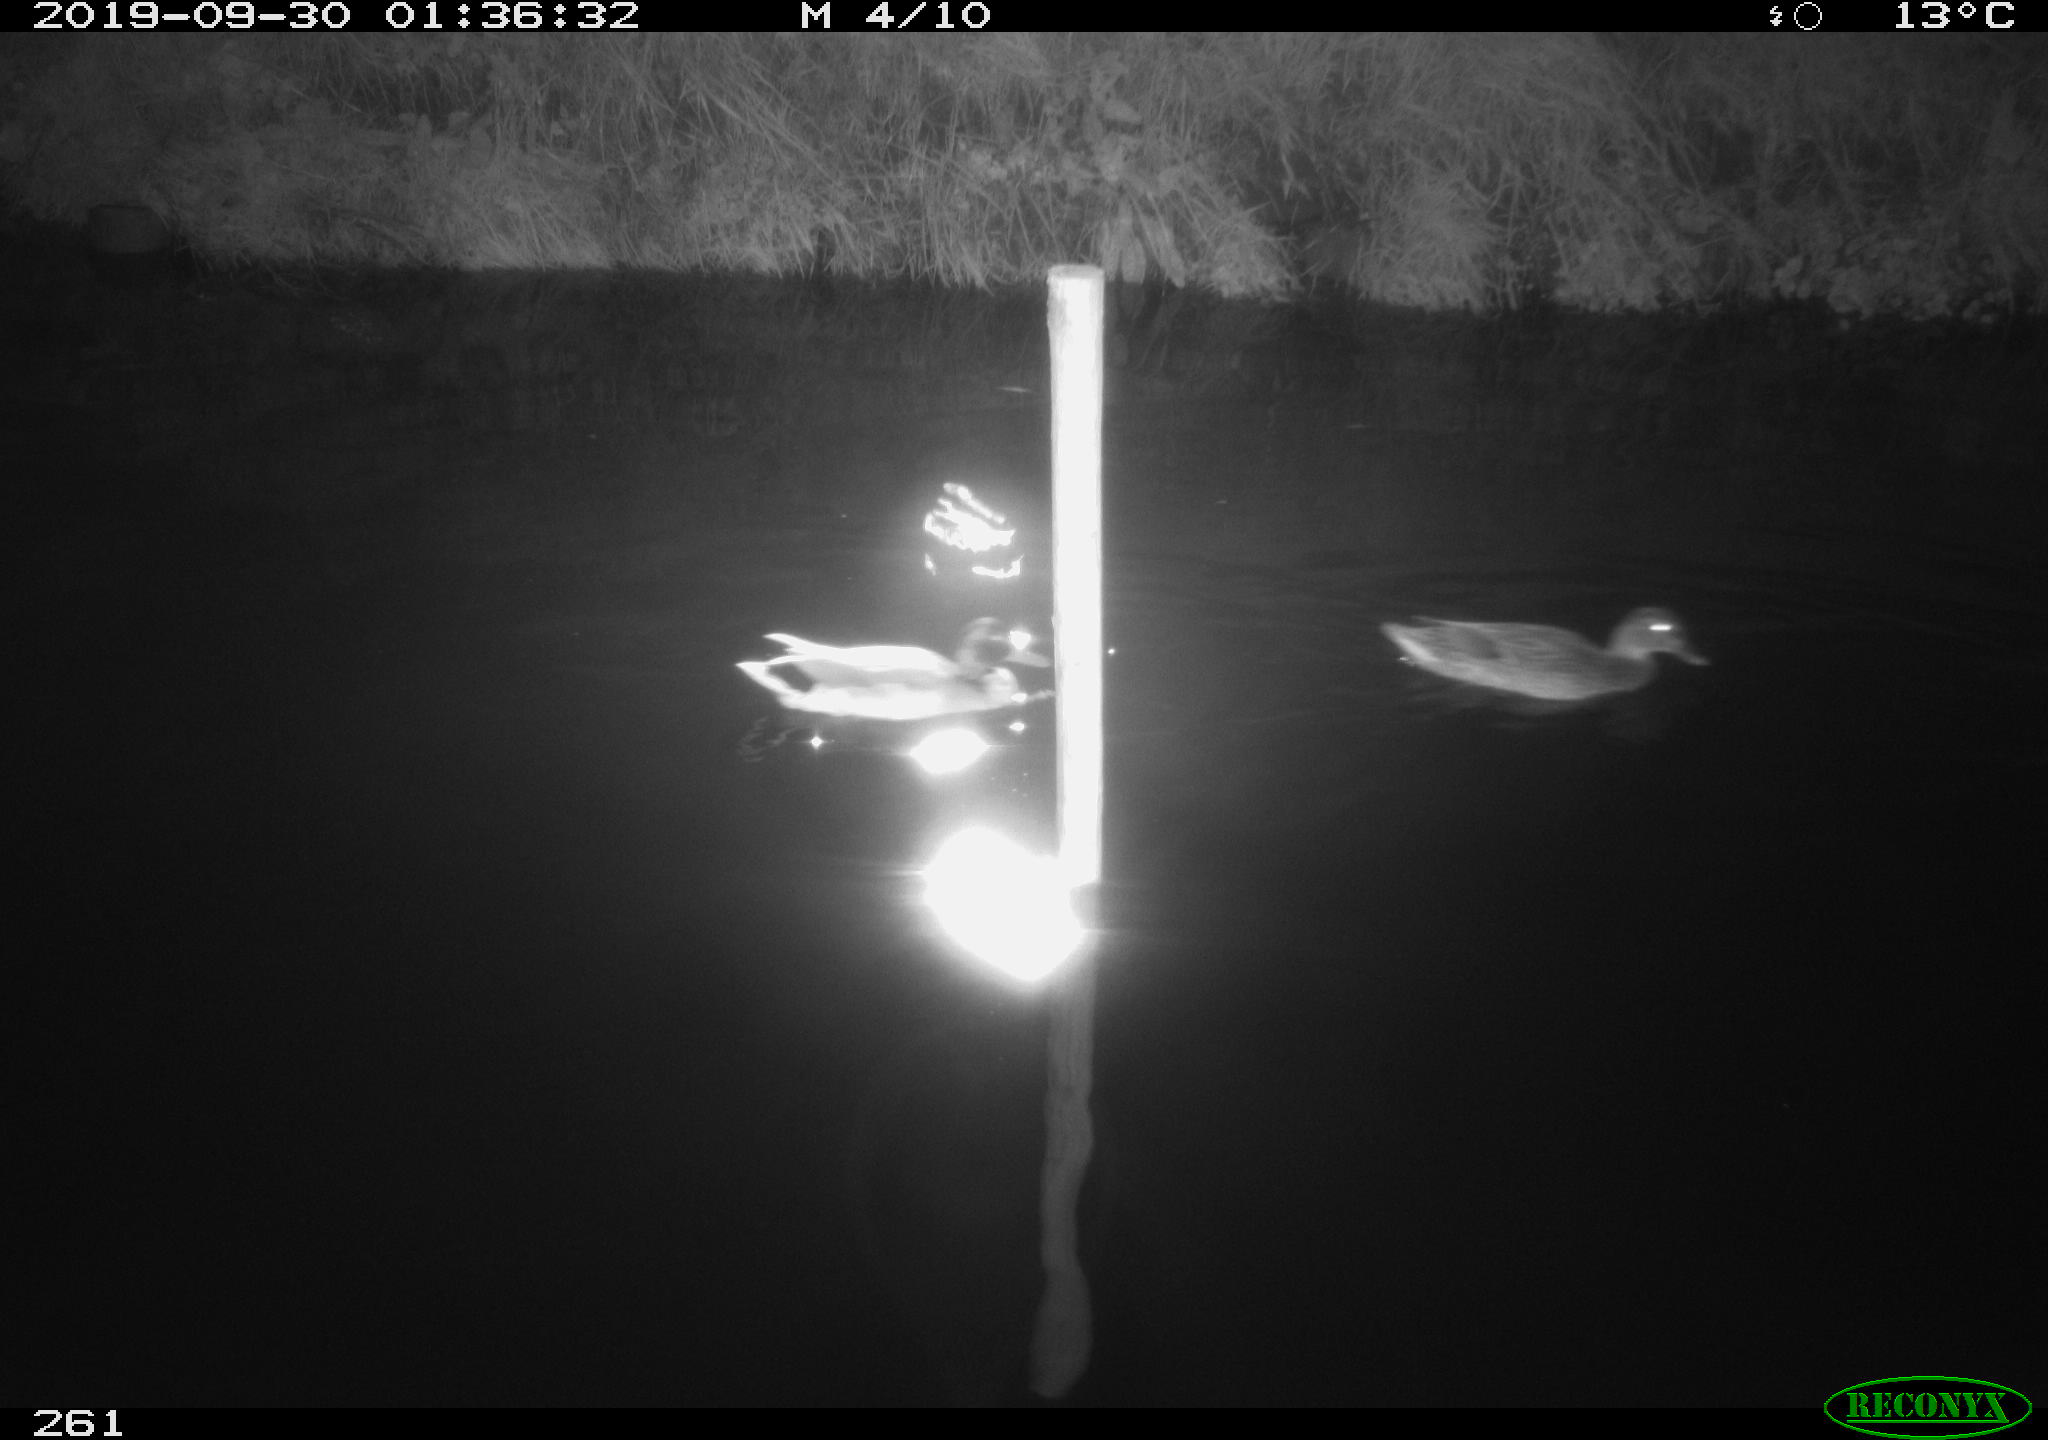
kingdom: Animalia
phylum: Chordata
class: Aves
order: Anseriformes
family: Anatidae
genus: Anas
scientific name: Anas platyrhynchos
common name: Mallard
